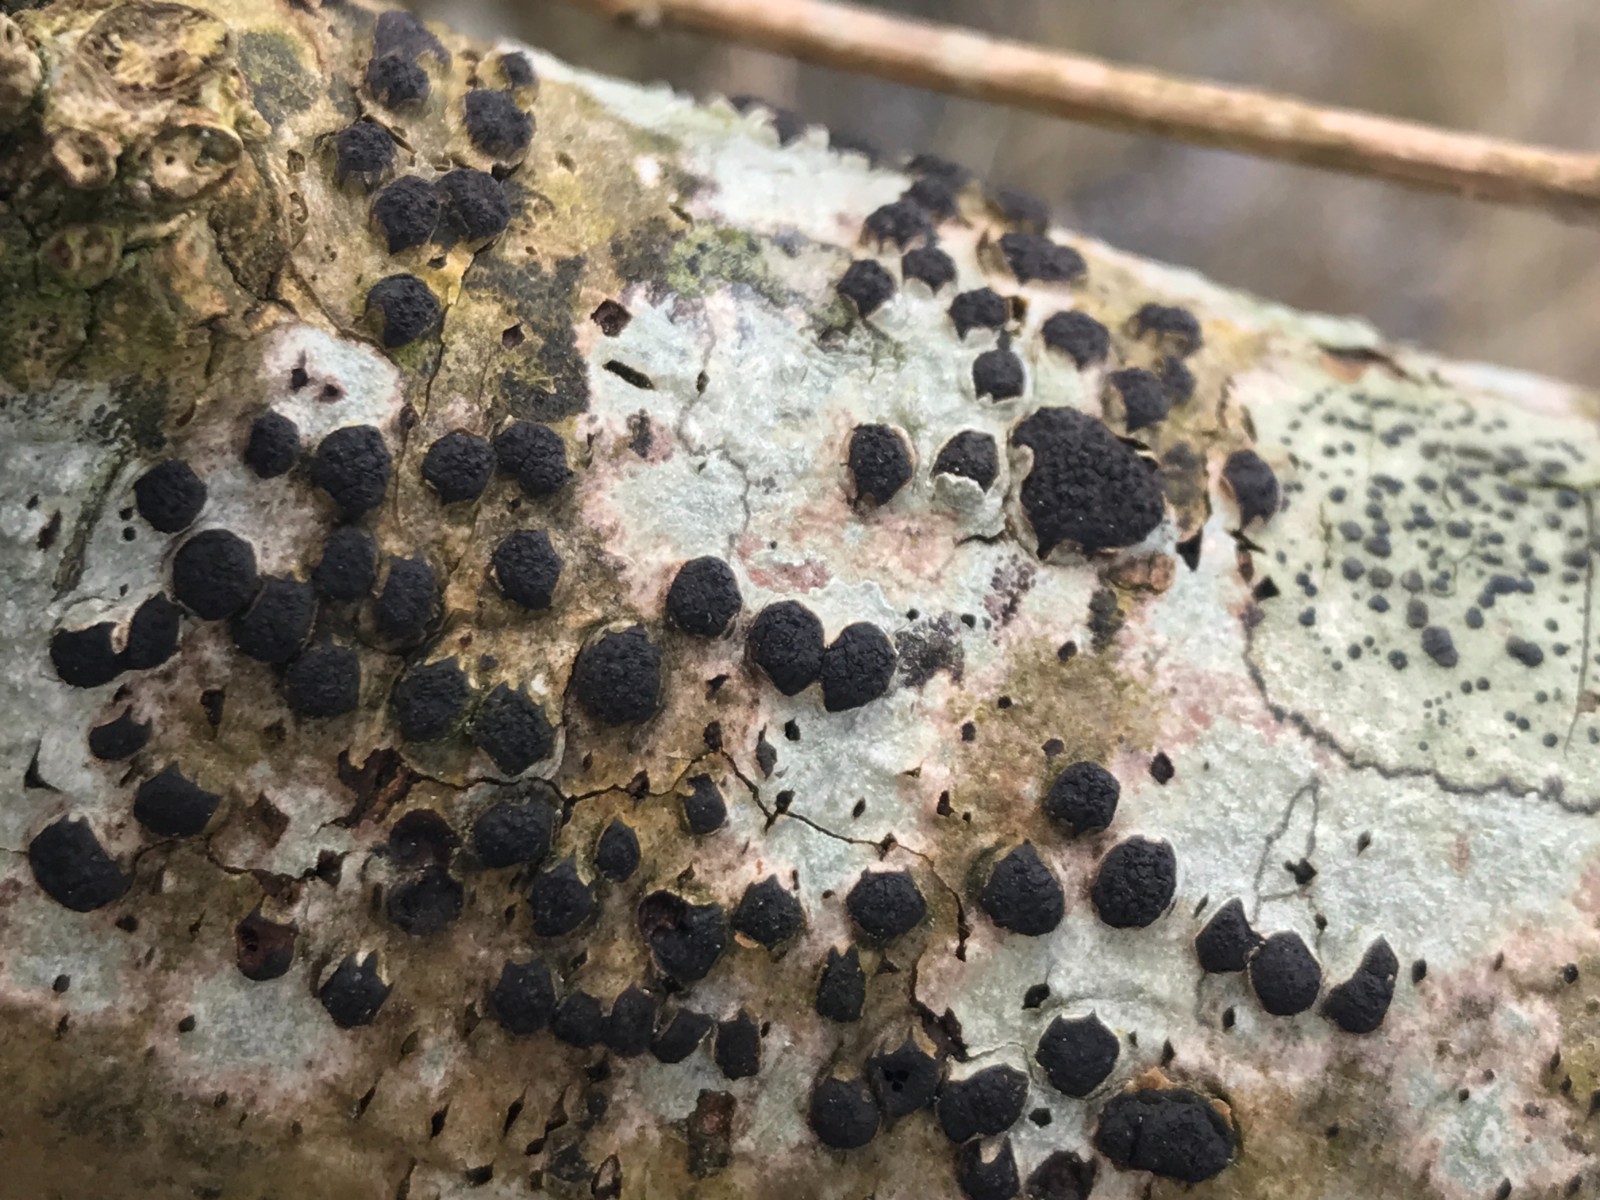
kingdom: Fungi
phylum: Ascomycota
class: Sordariomycetes
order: Xylariales
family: Diatrypaceae
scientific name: Diatrypaceae
